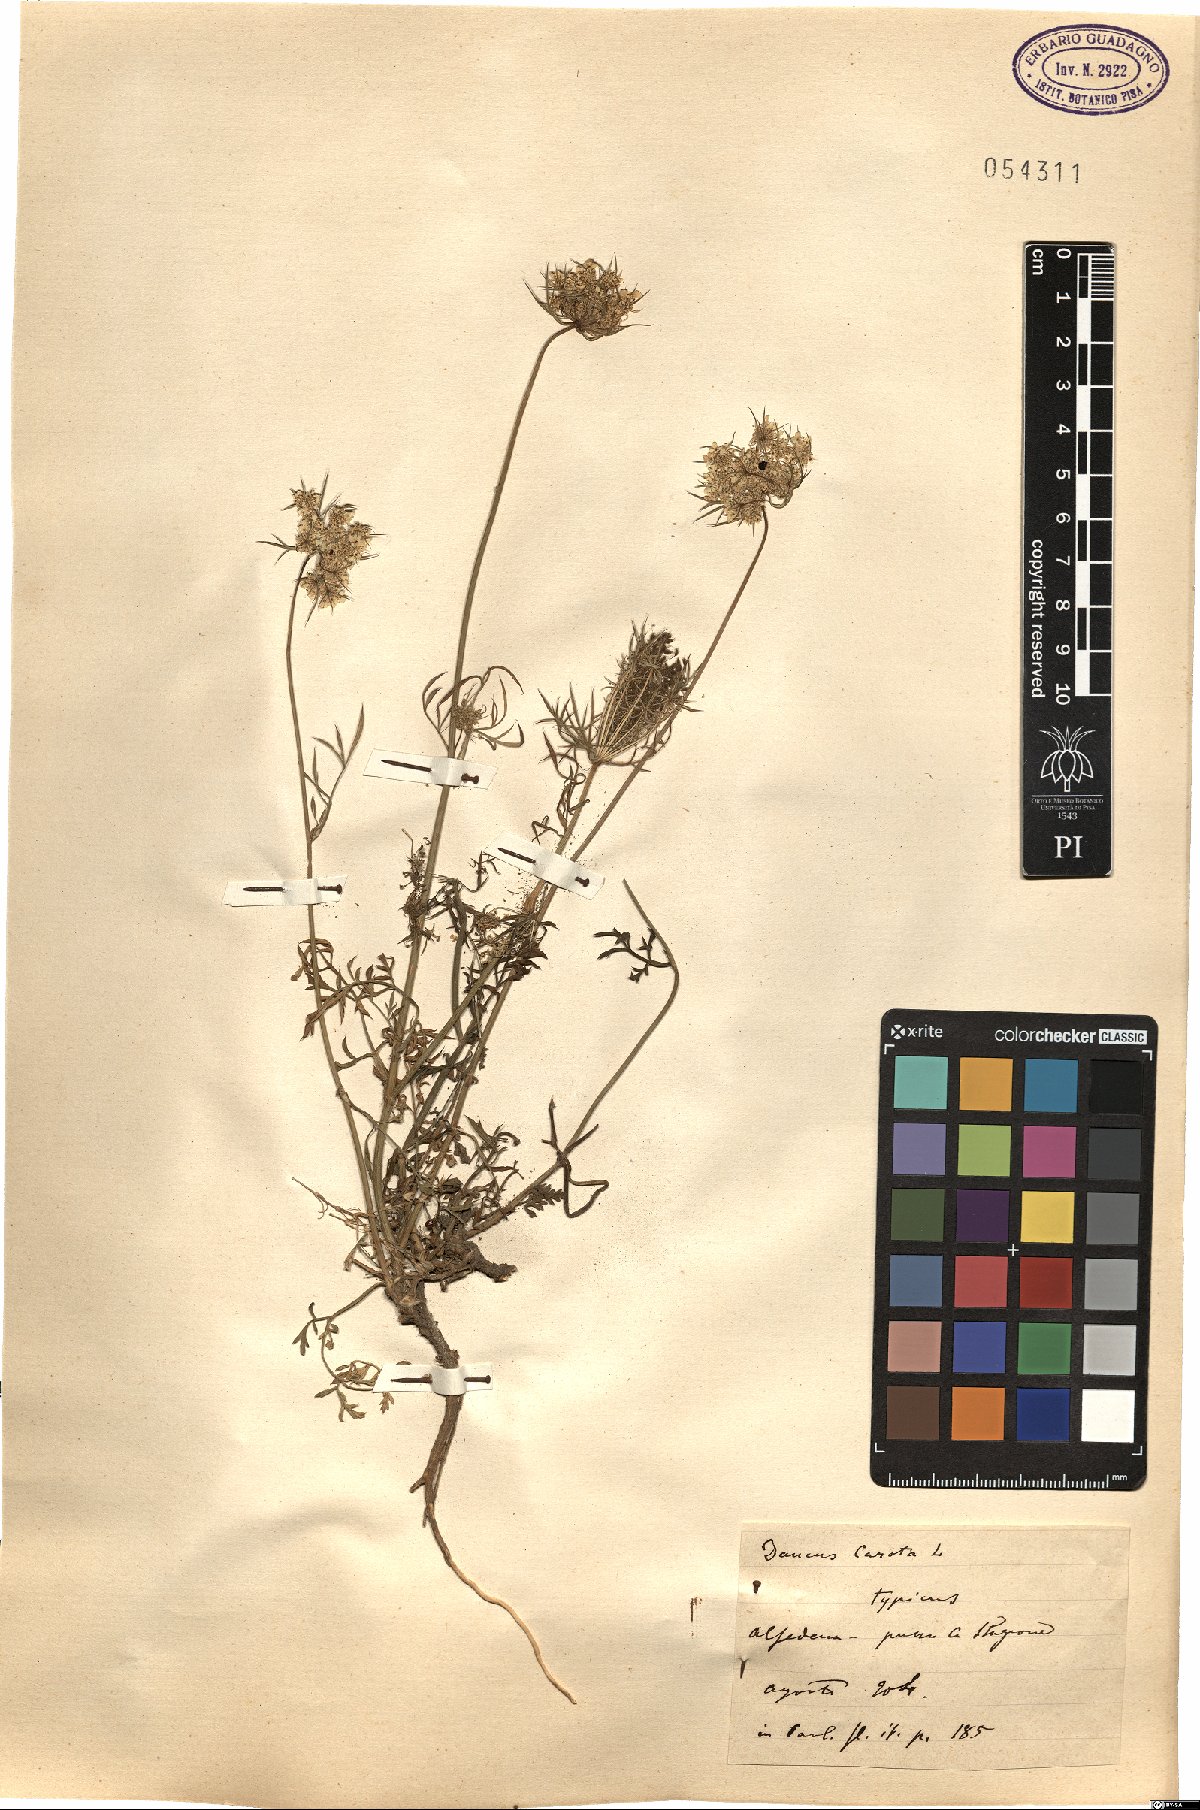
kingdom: Plantae
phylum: Tracheophyta
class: Magnoliopsida
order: Apiales
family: Apiaceae
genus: Daucus
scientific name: Daucus carota
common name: Wild carrot
